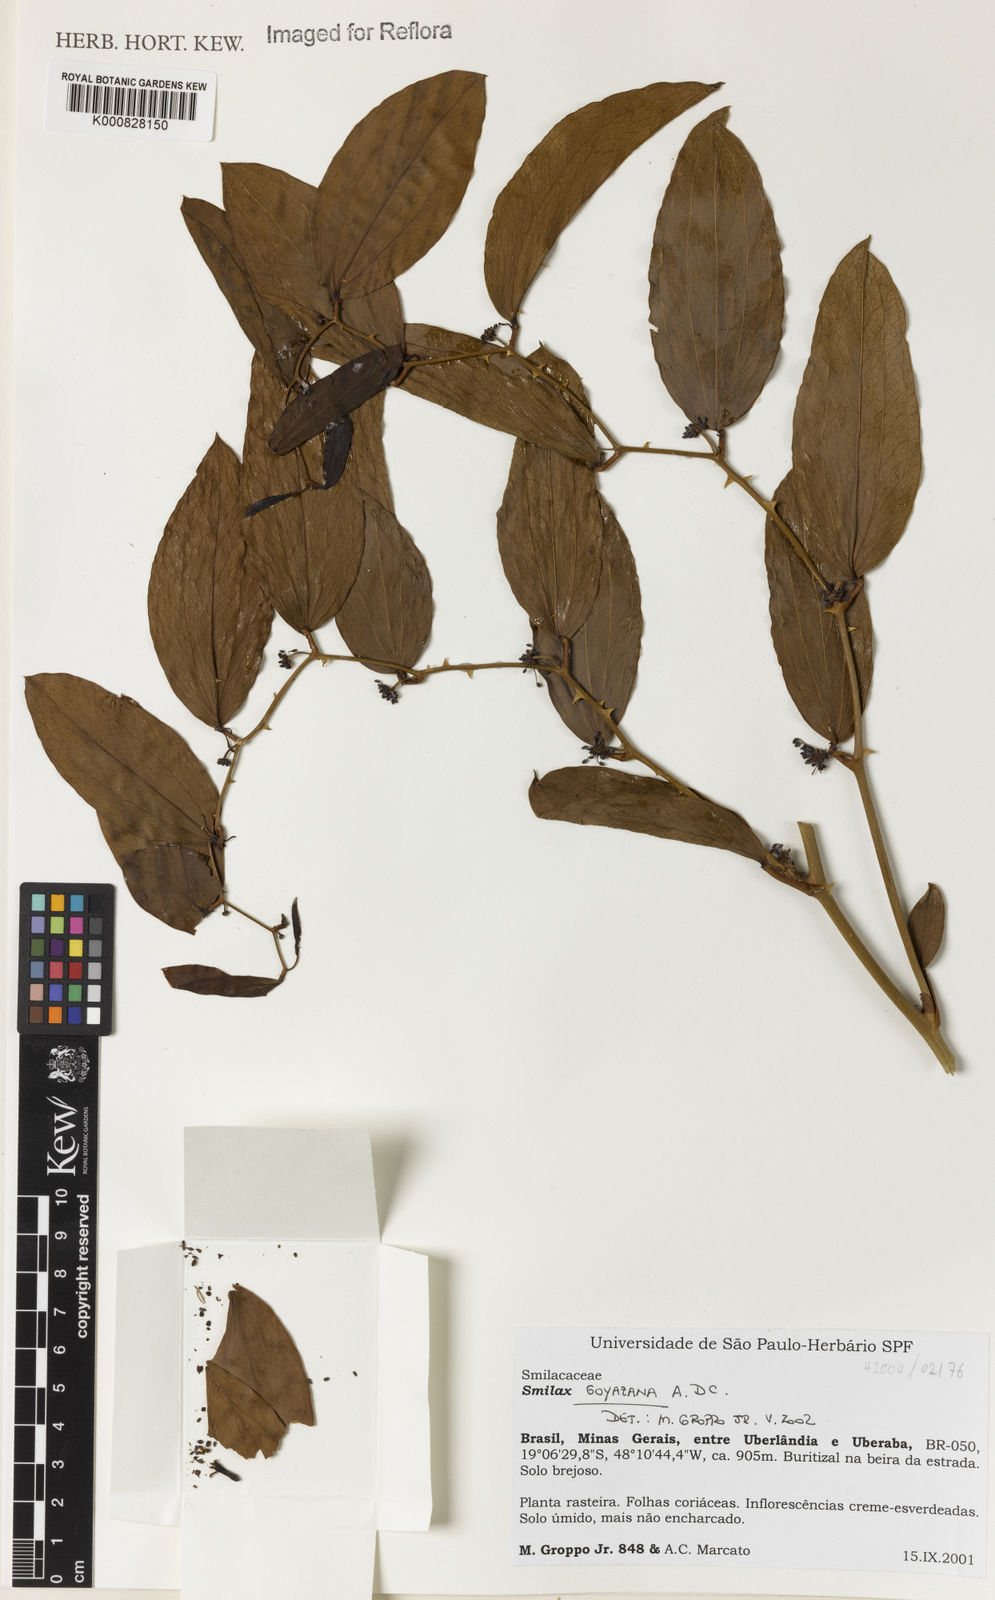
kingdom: Plantae
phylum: Tracheophyta
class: Liliopsida
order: Liliales
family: Smilacaceae
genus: Smilax
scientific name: Smilax goyazana
